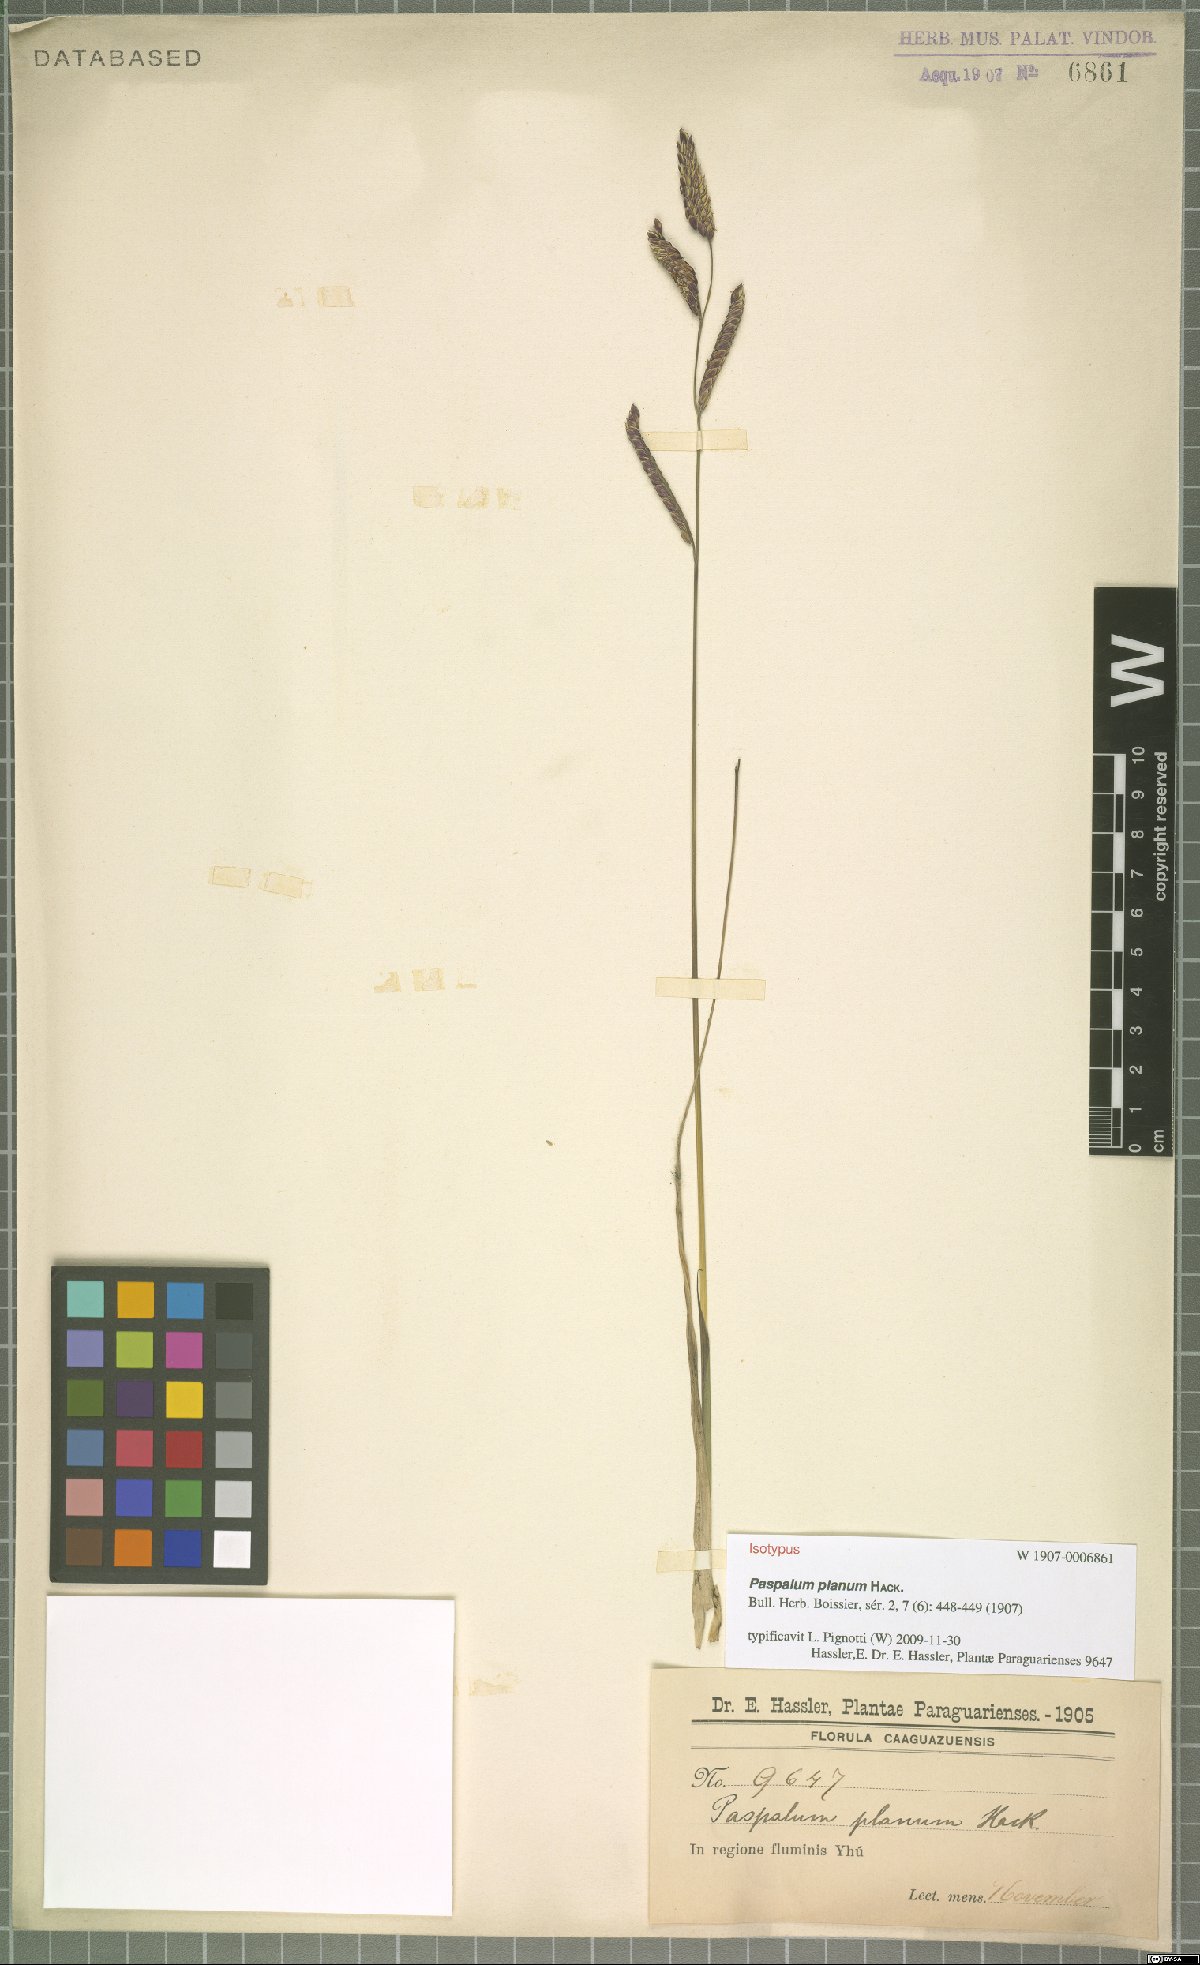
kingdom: Plantae
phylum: Tracheophyta
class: Liliopsida
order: Poales
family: Poaceae
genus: Paspalum
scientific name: Paspalum planum
